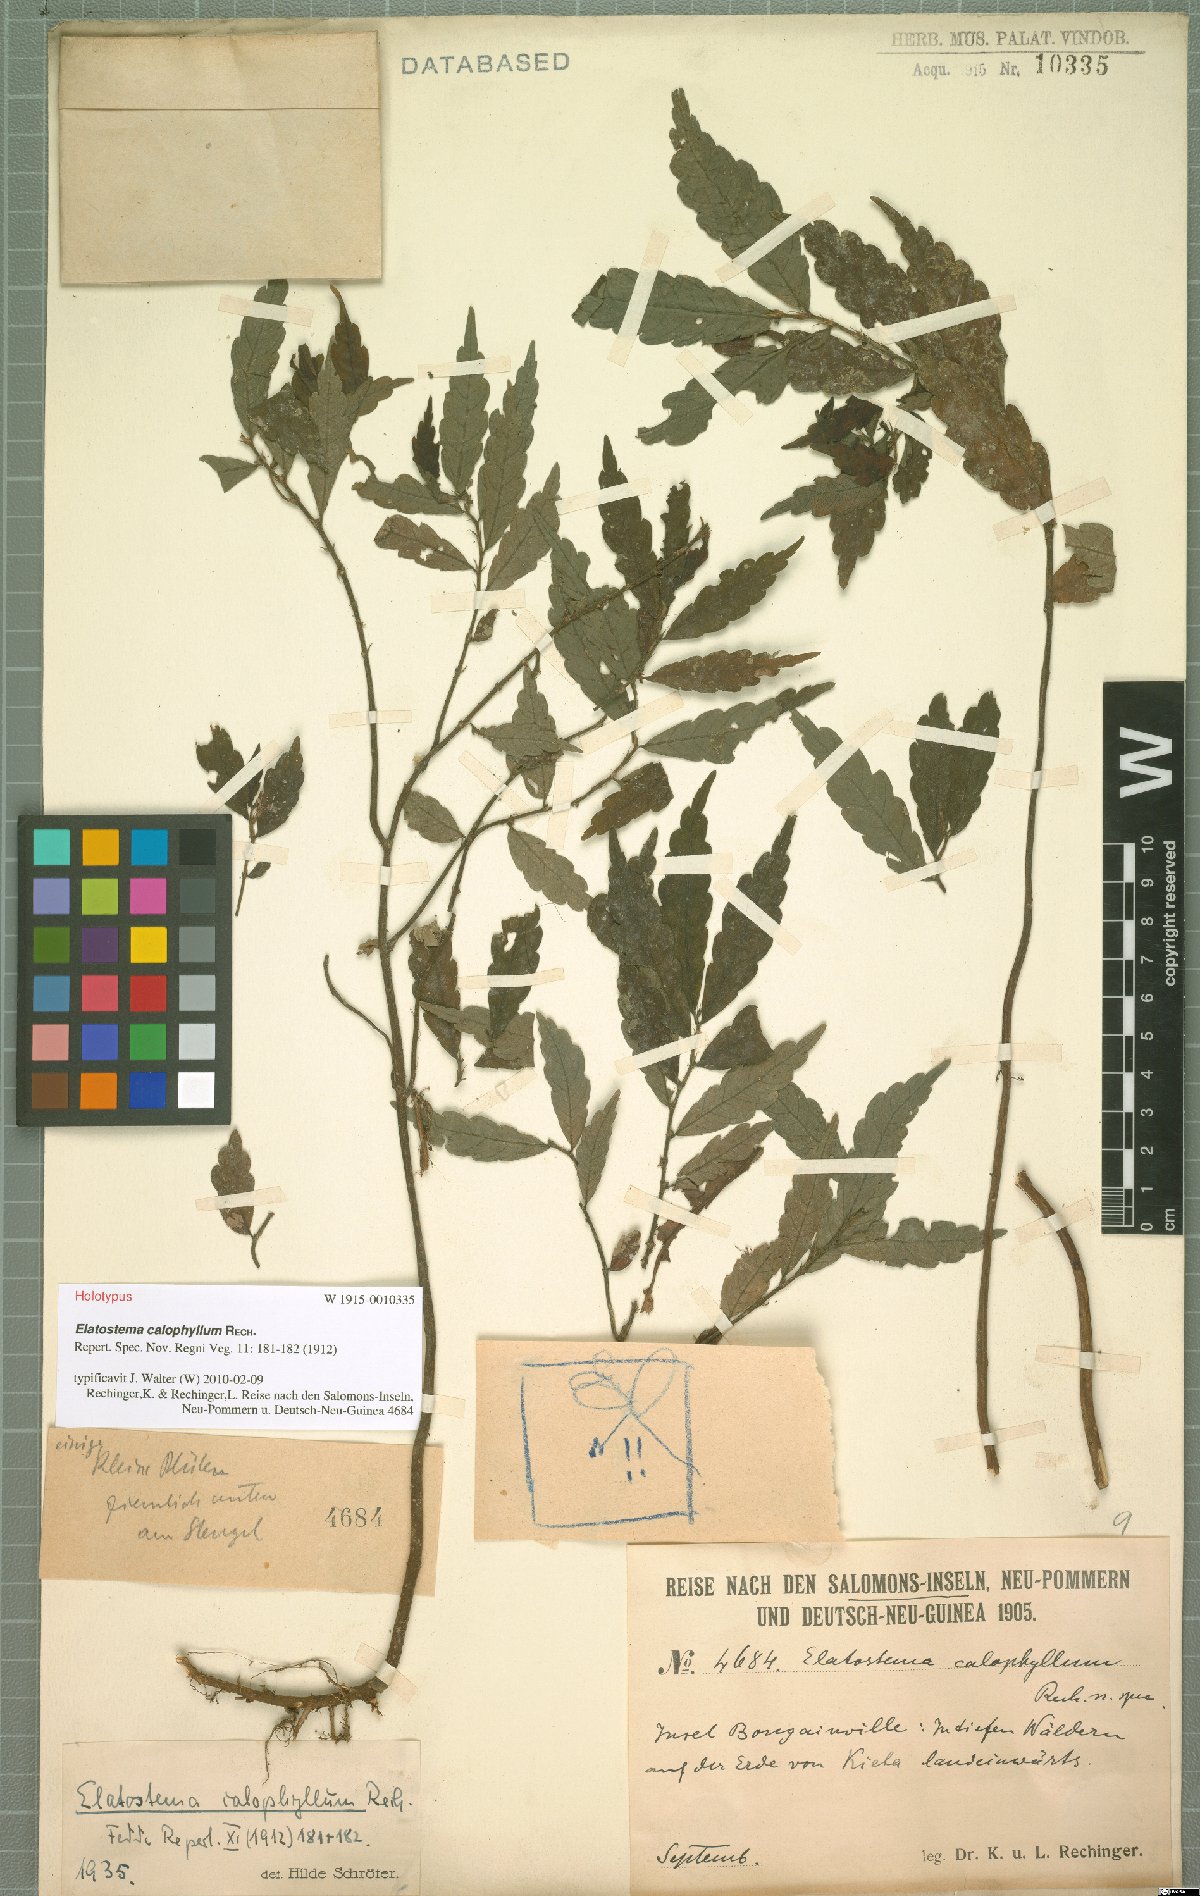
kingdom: Plantae
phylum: Tracheophyta
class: Magnoliopsida
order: Rosales
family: Urticaceae
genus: Elatostema
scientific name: Elatostema calophyllum
